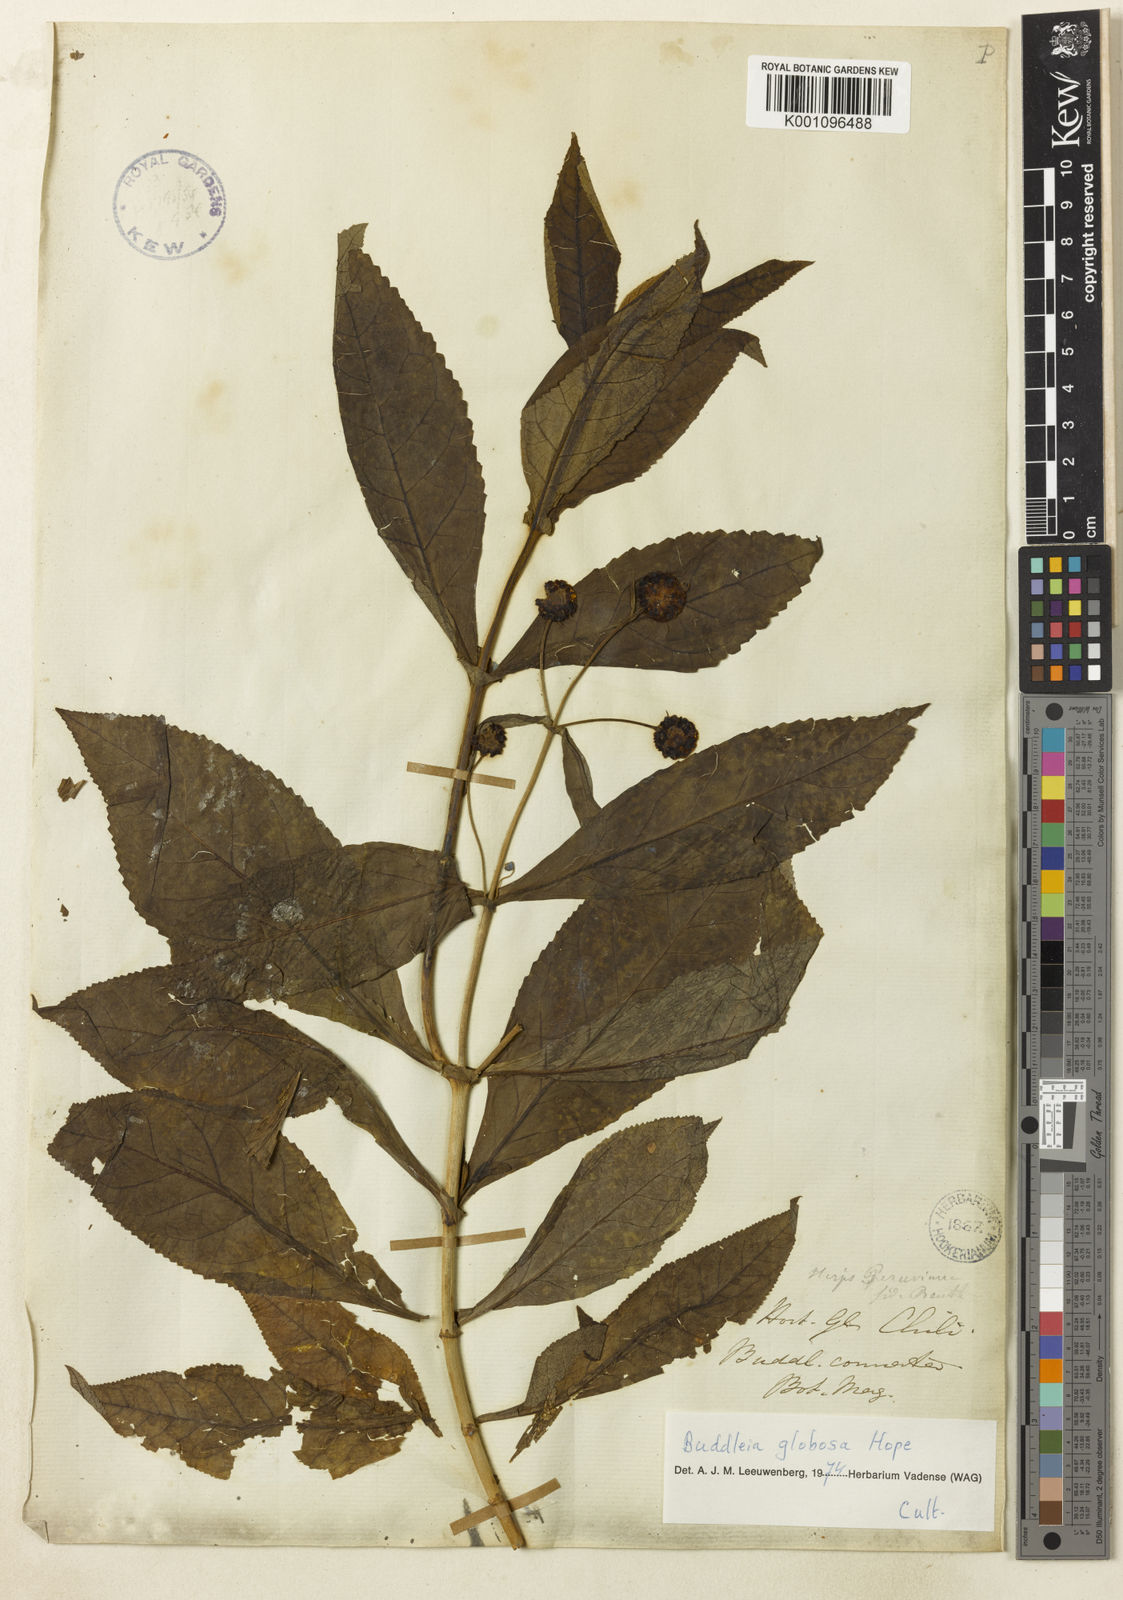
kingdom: Plantae
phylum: Tracheophyta
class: Magnoliopsida
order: Lamiales
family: Scrophulariaceae
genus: Buddleja
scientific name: Buddleja globosa
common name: Orange-ball-tree
